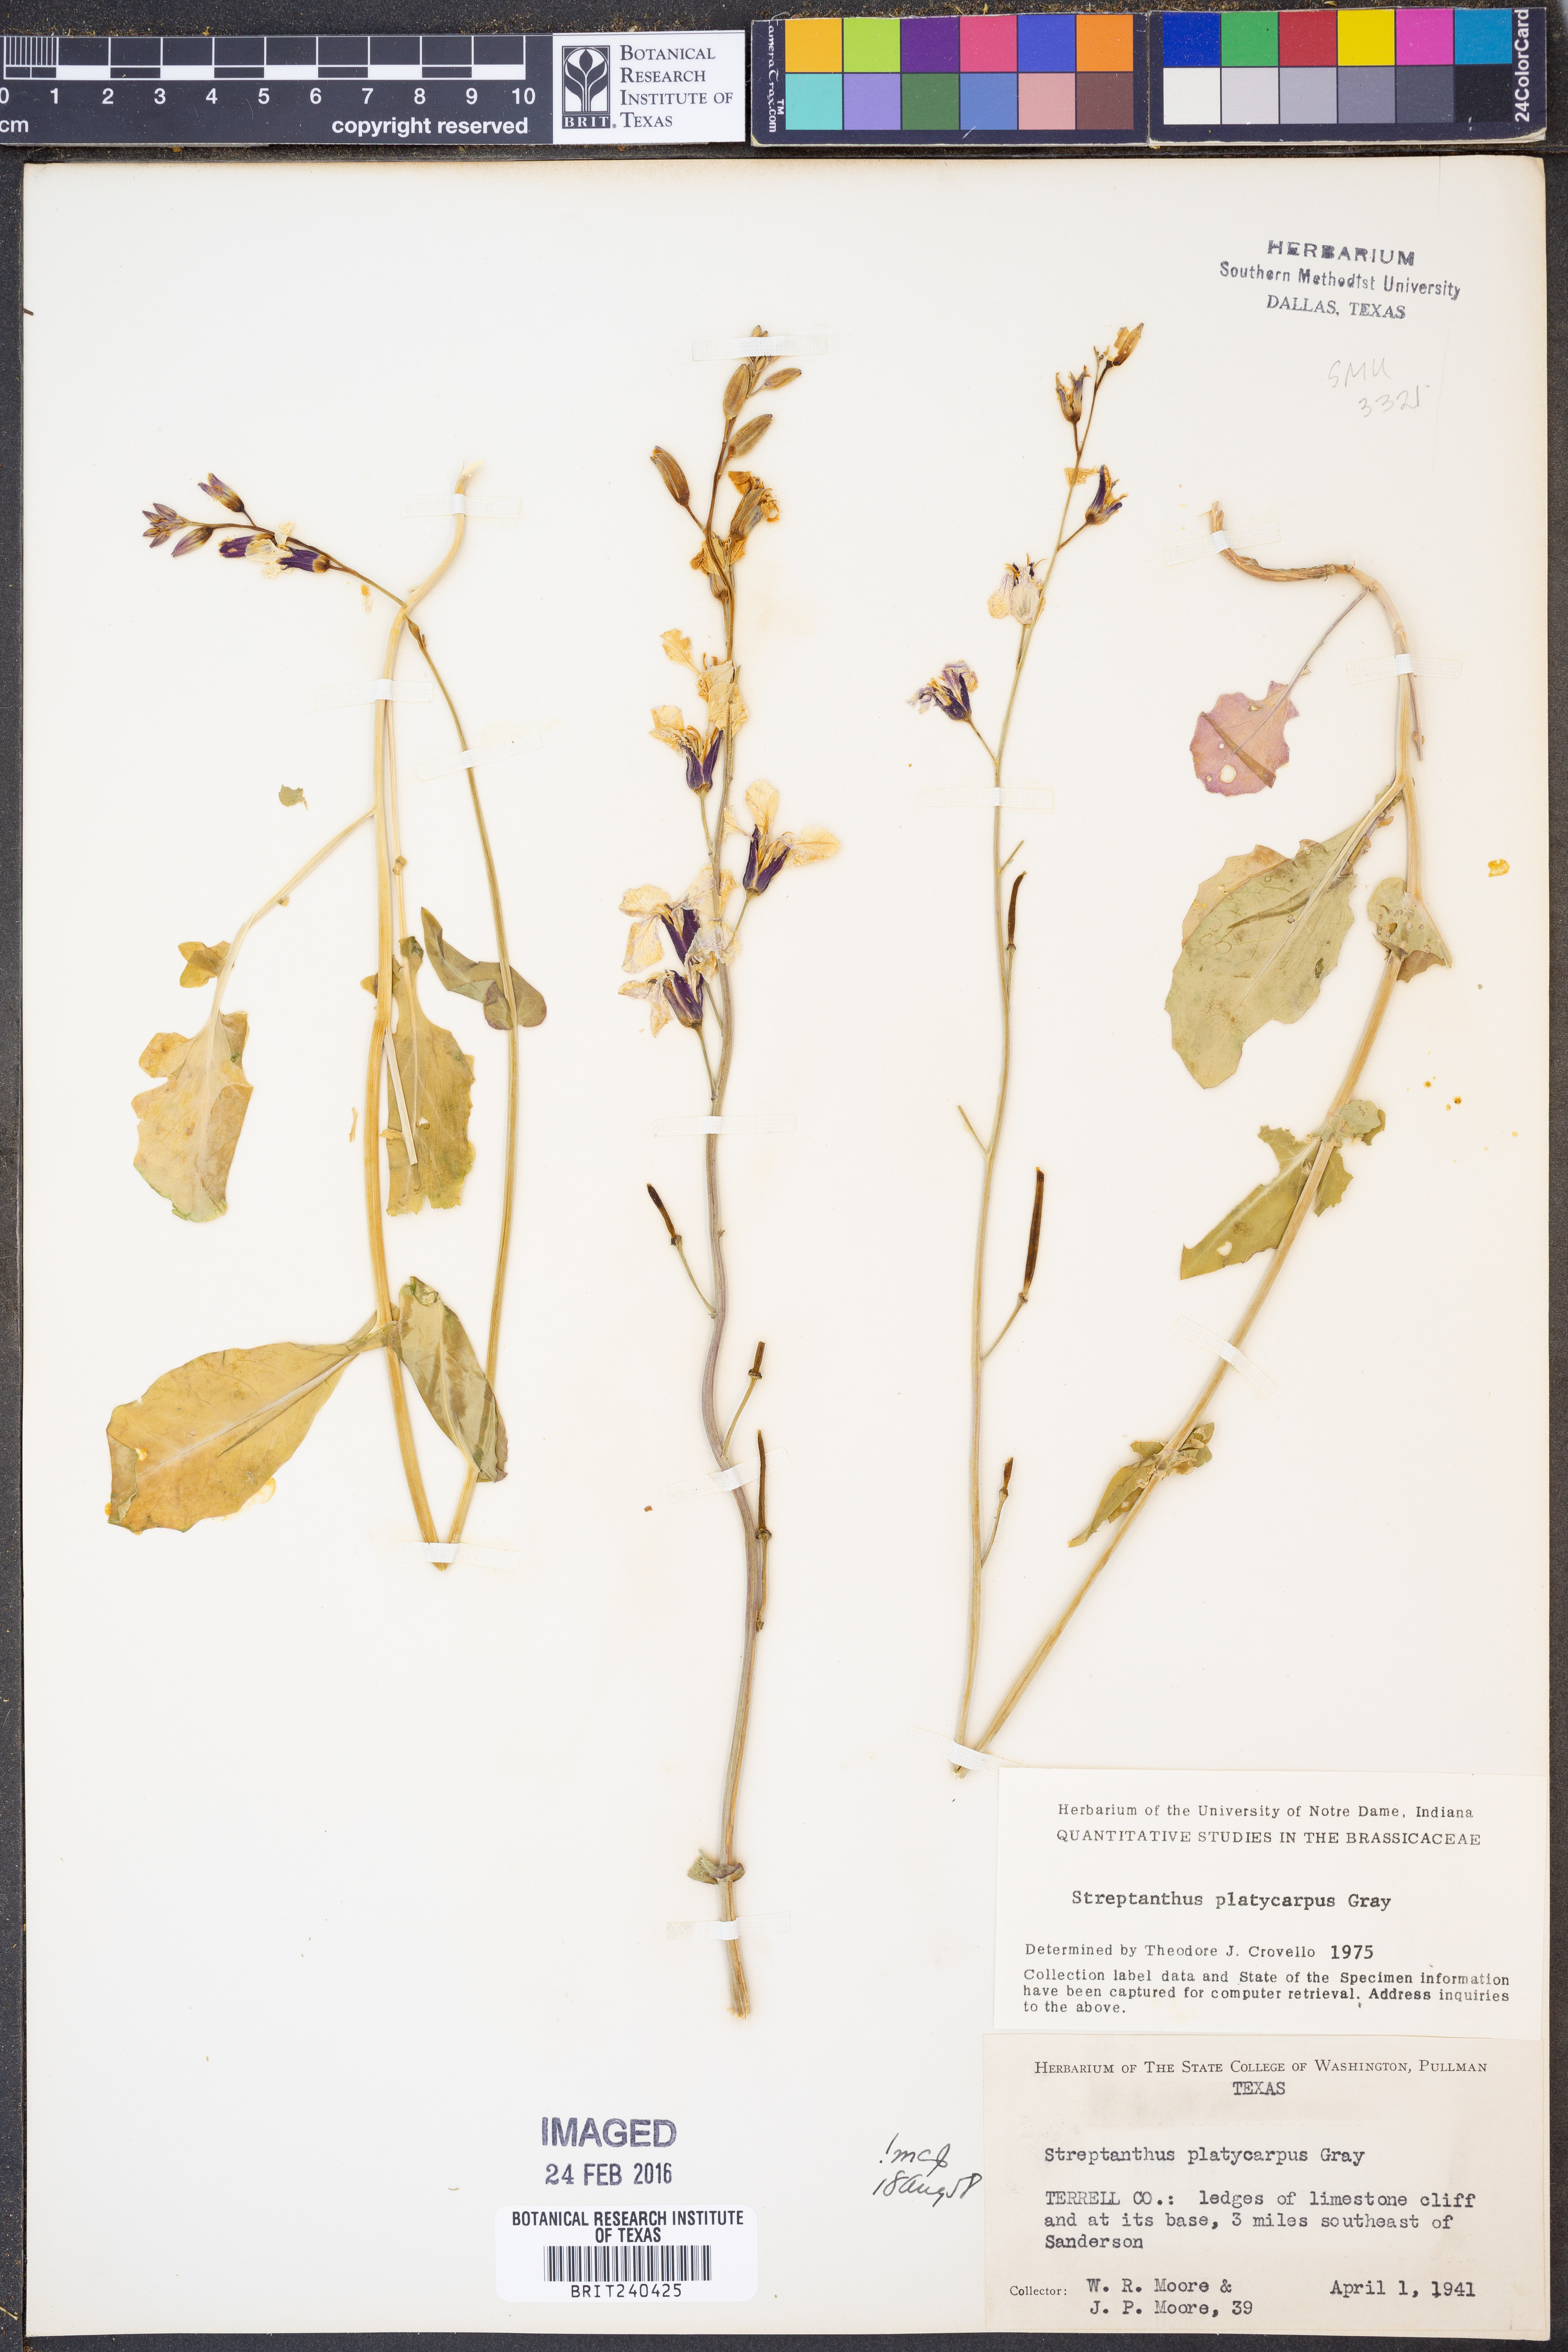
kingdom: Plantae
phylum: Tracheophyta
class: Magnoliopsida
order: Brassicales
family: Brassicaceae
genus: Streptanthus
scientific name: Streptanthus platycarpus
